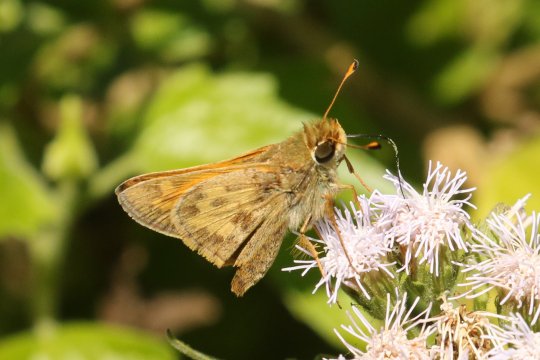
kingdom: Animalia
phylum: Arthropoda
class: Insecta
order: Lepidoptera
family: Hesperiidae
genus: Atalopedes
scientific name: Atalopedes campestris
